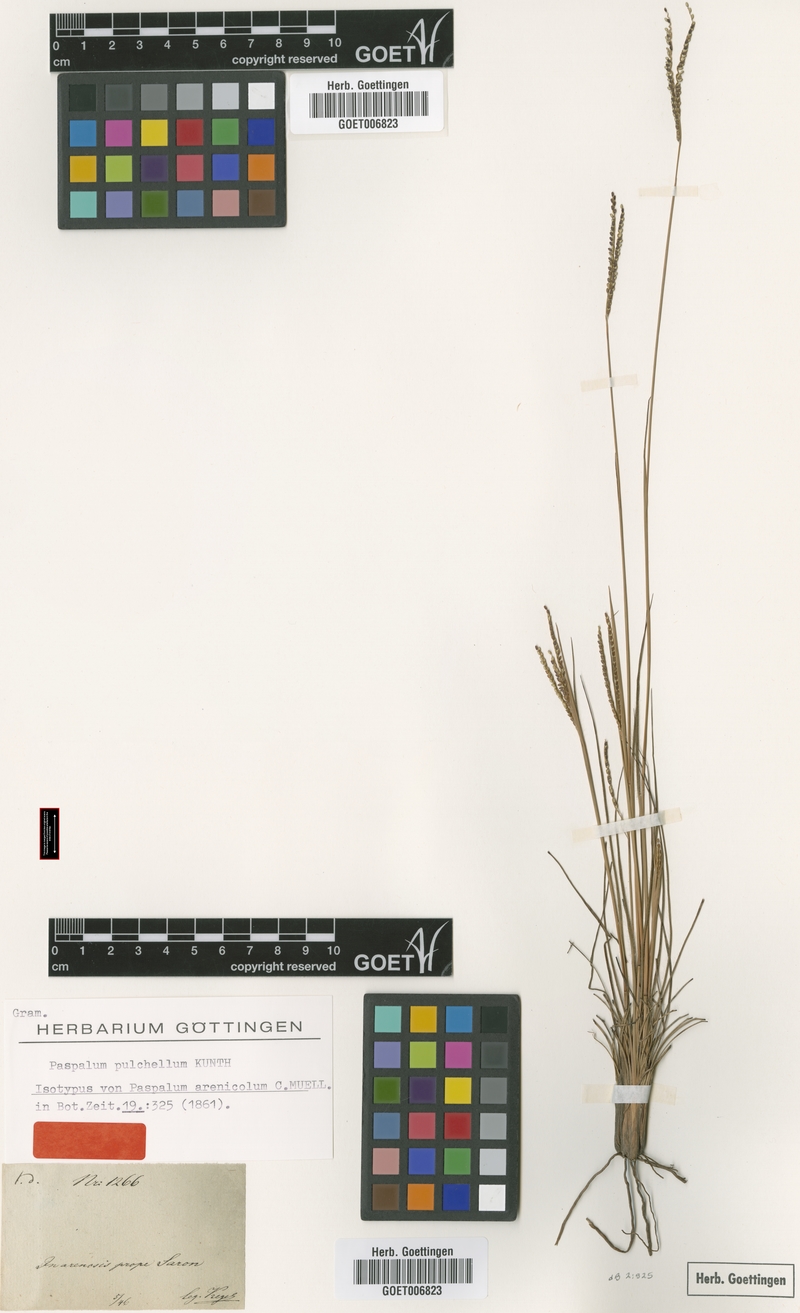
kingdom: Plantae
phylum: Tracheophyta
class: Liliopsida
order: Poales
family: Poaceae
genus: Paspalum
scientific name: Paspalum pulchellum
